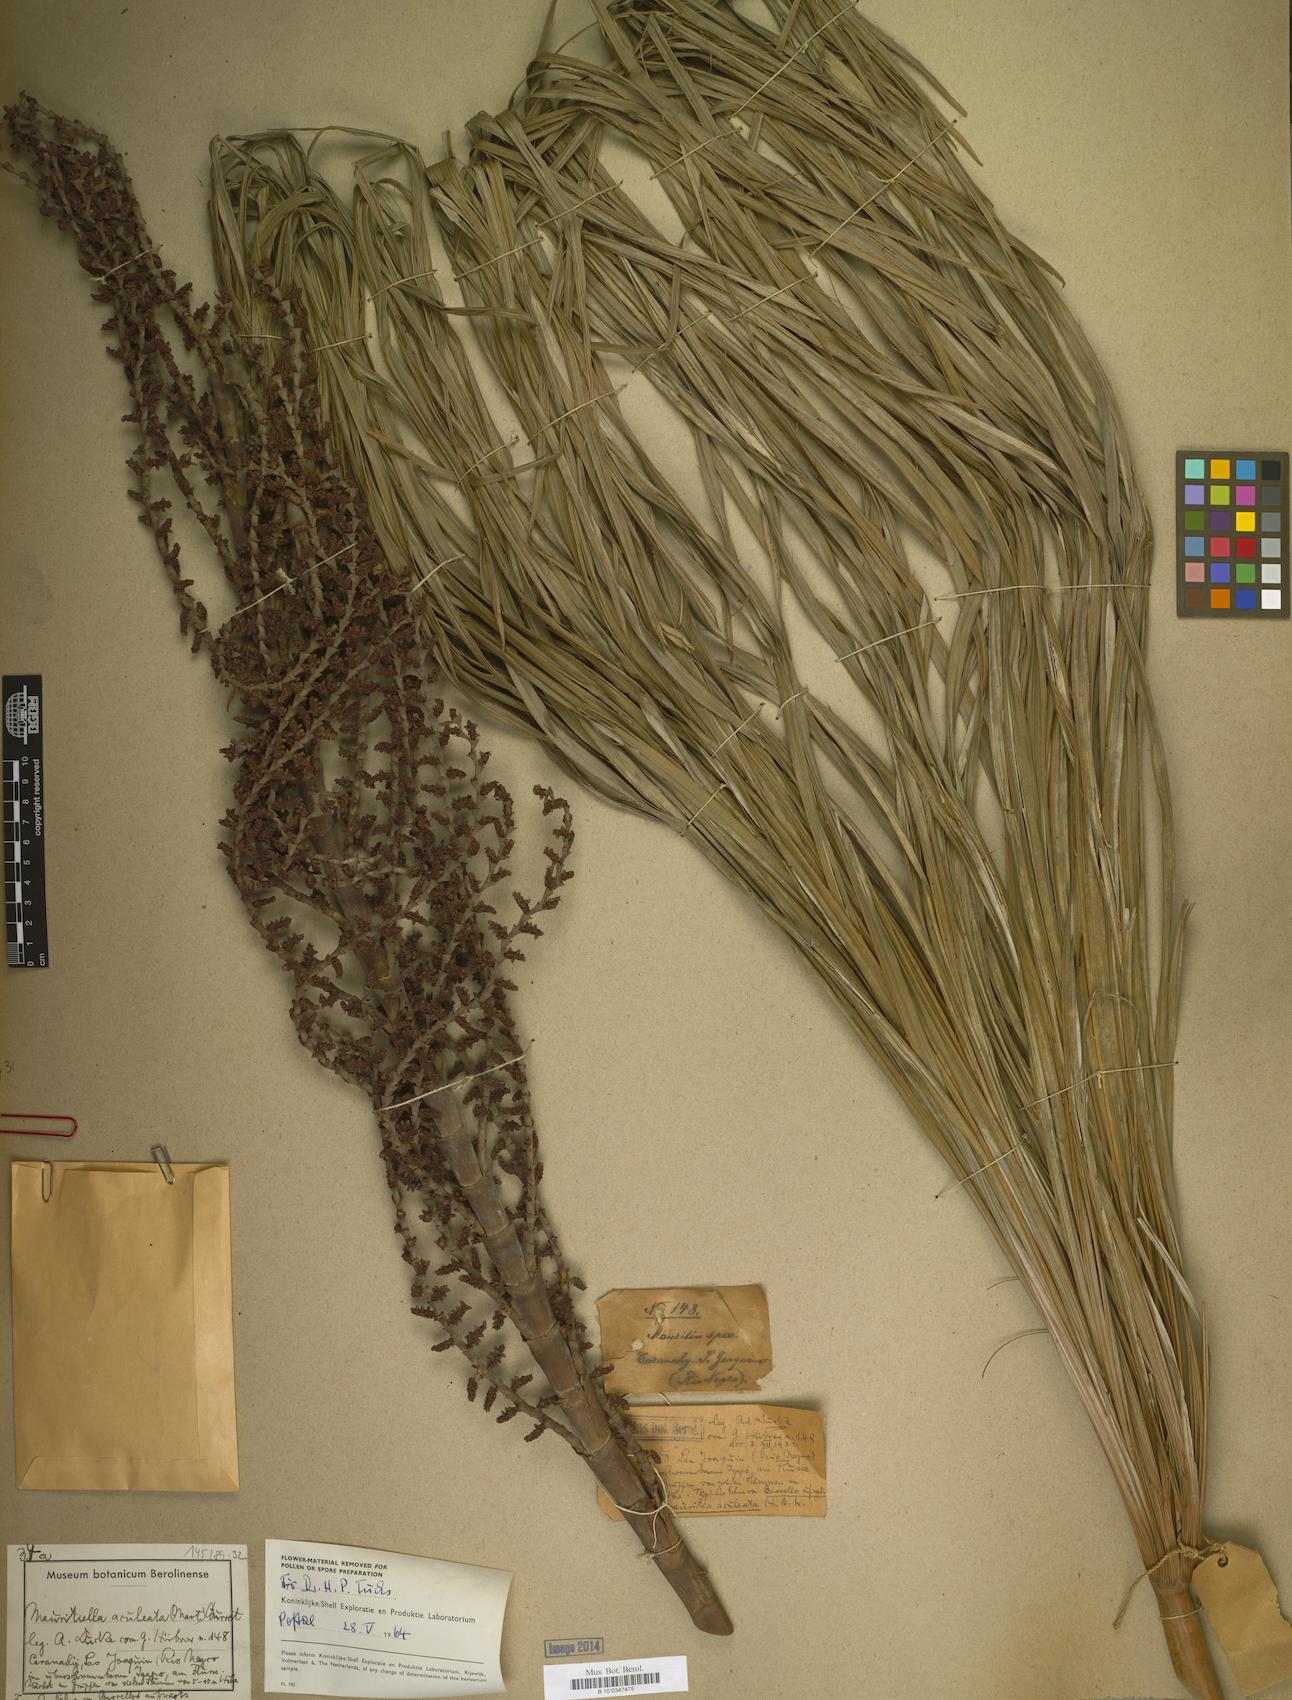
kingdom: Plantae
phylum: Tracheophyta
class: Liliopsida
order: Arecales
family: Arecaceae
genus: Mauritiella
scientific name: Mauritiella aculeata
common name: Buritirana
